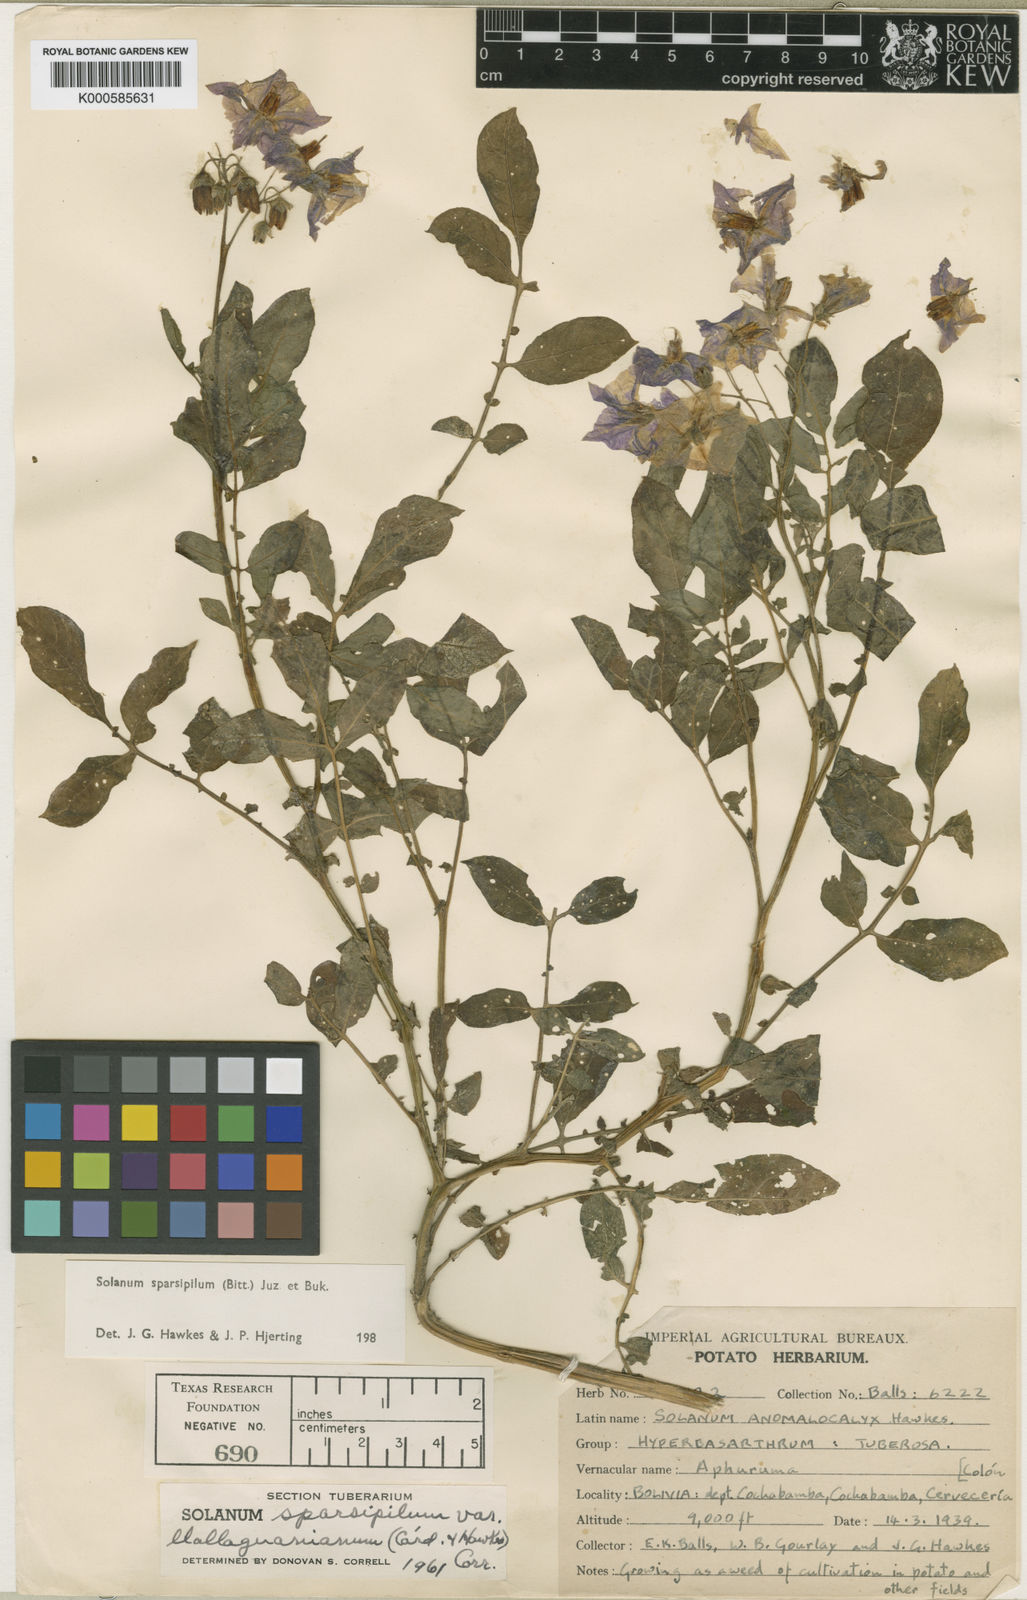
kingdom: Plantae
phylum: Tracheophyta
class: Magnoliopsida
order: Solanales
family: Solanaceae
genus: Solanum
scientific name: Solanum brevicaule
